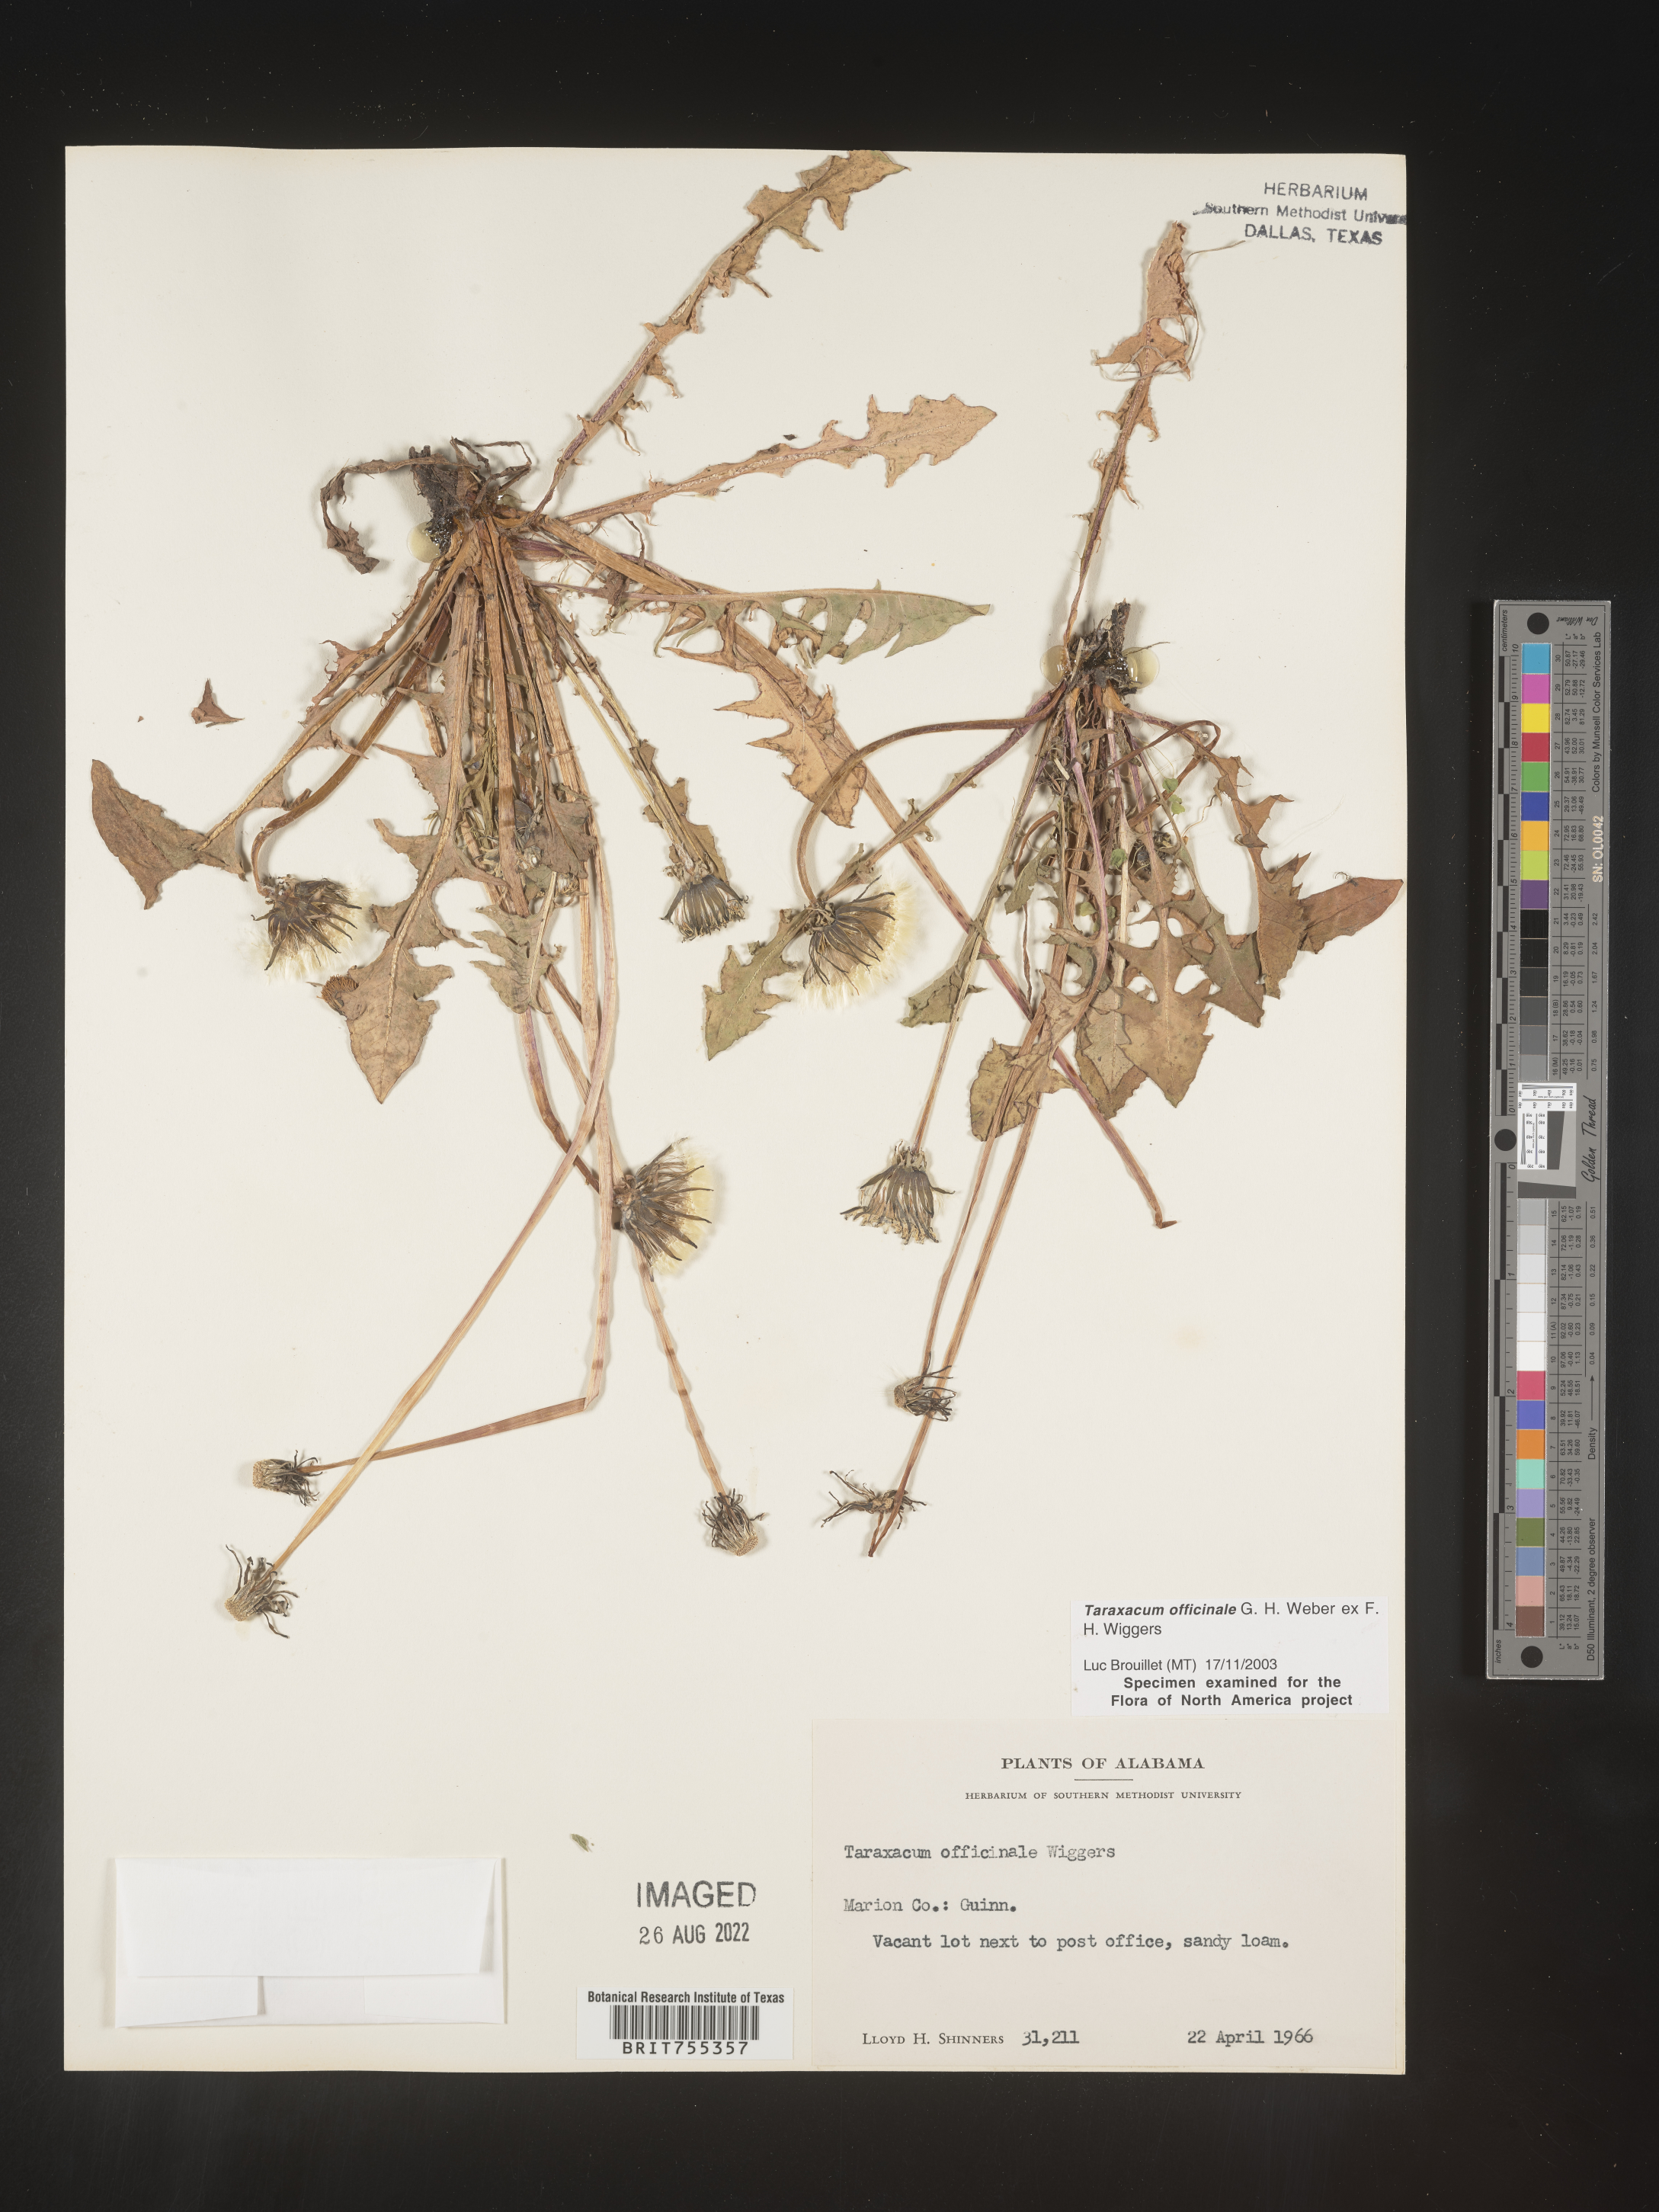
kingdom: Plantae
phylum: Tracheophyta
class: Magnoliopsida
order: Asterales
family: Asteraceae
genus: Taraxacum
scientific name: Taraxacum officinale
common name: Common dandelion
